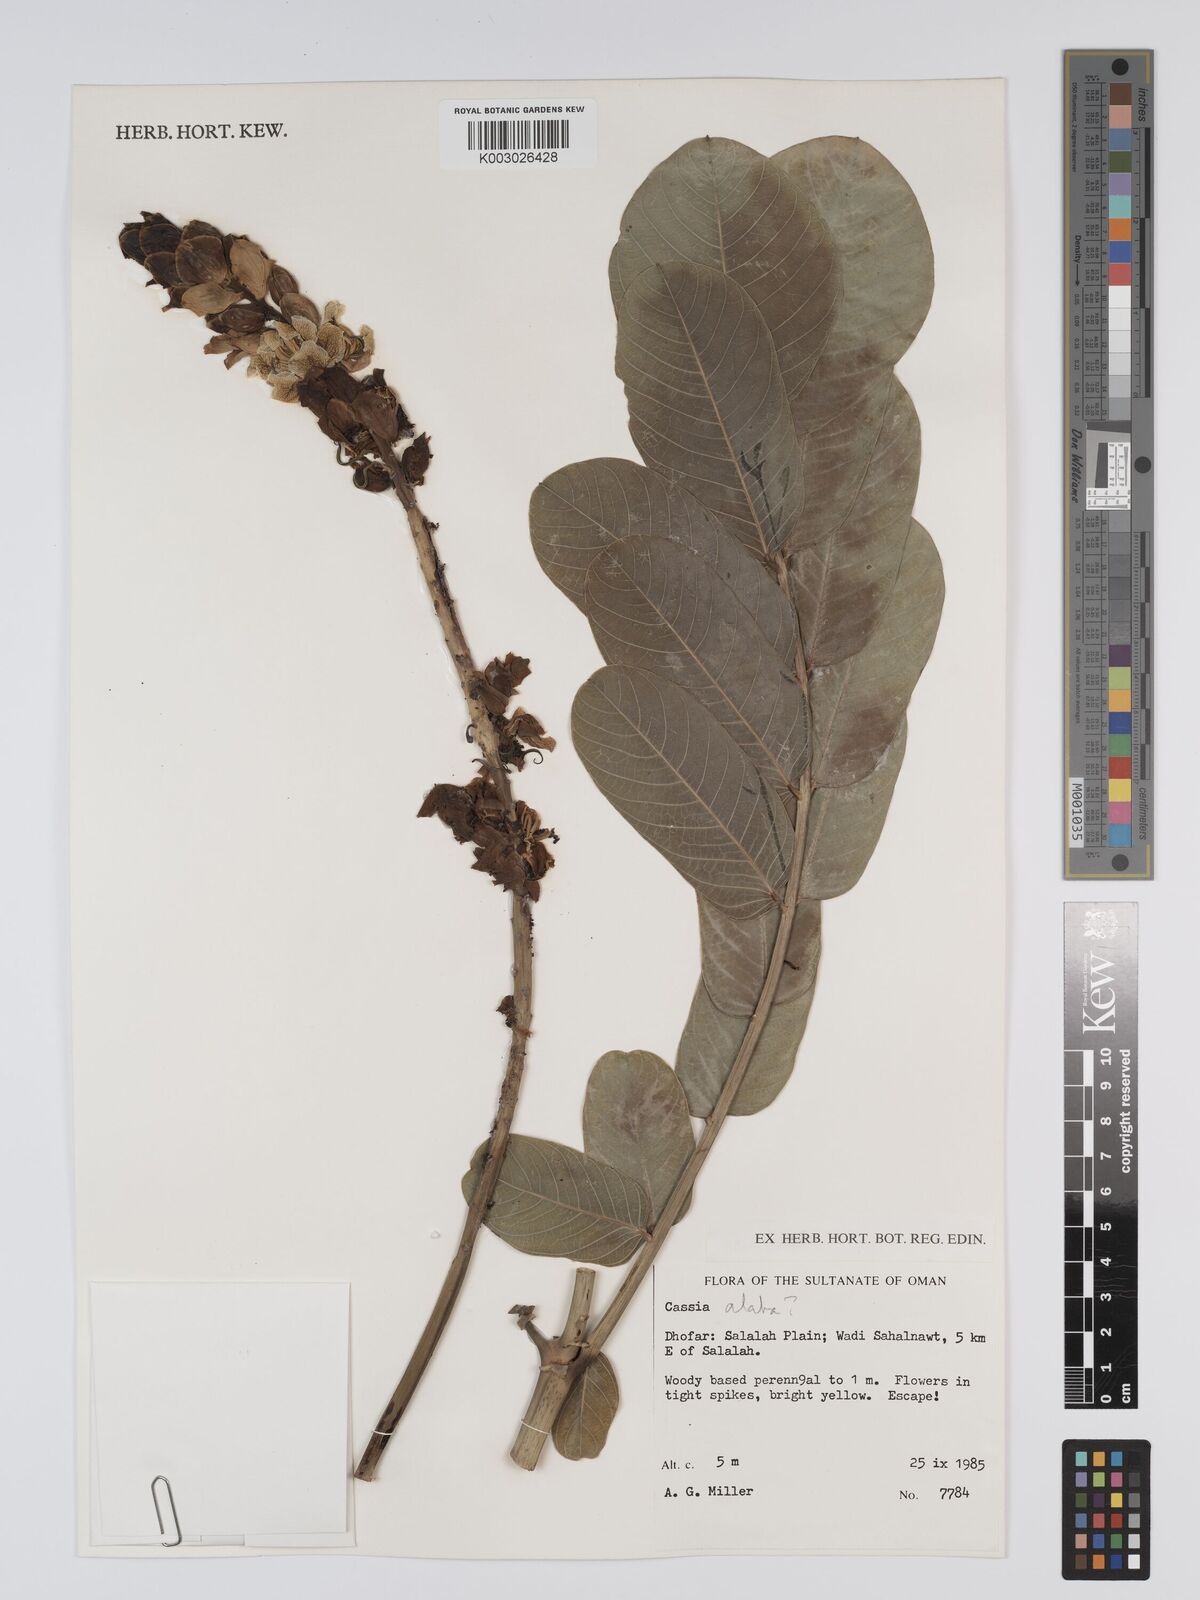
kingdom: Plantae
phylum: Tracheophyta
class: Magnoliopsida
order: Fabales
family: Fabaceae
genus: Cassia
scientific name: Cassia
